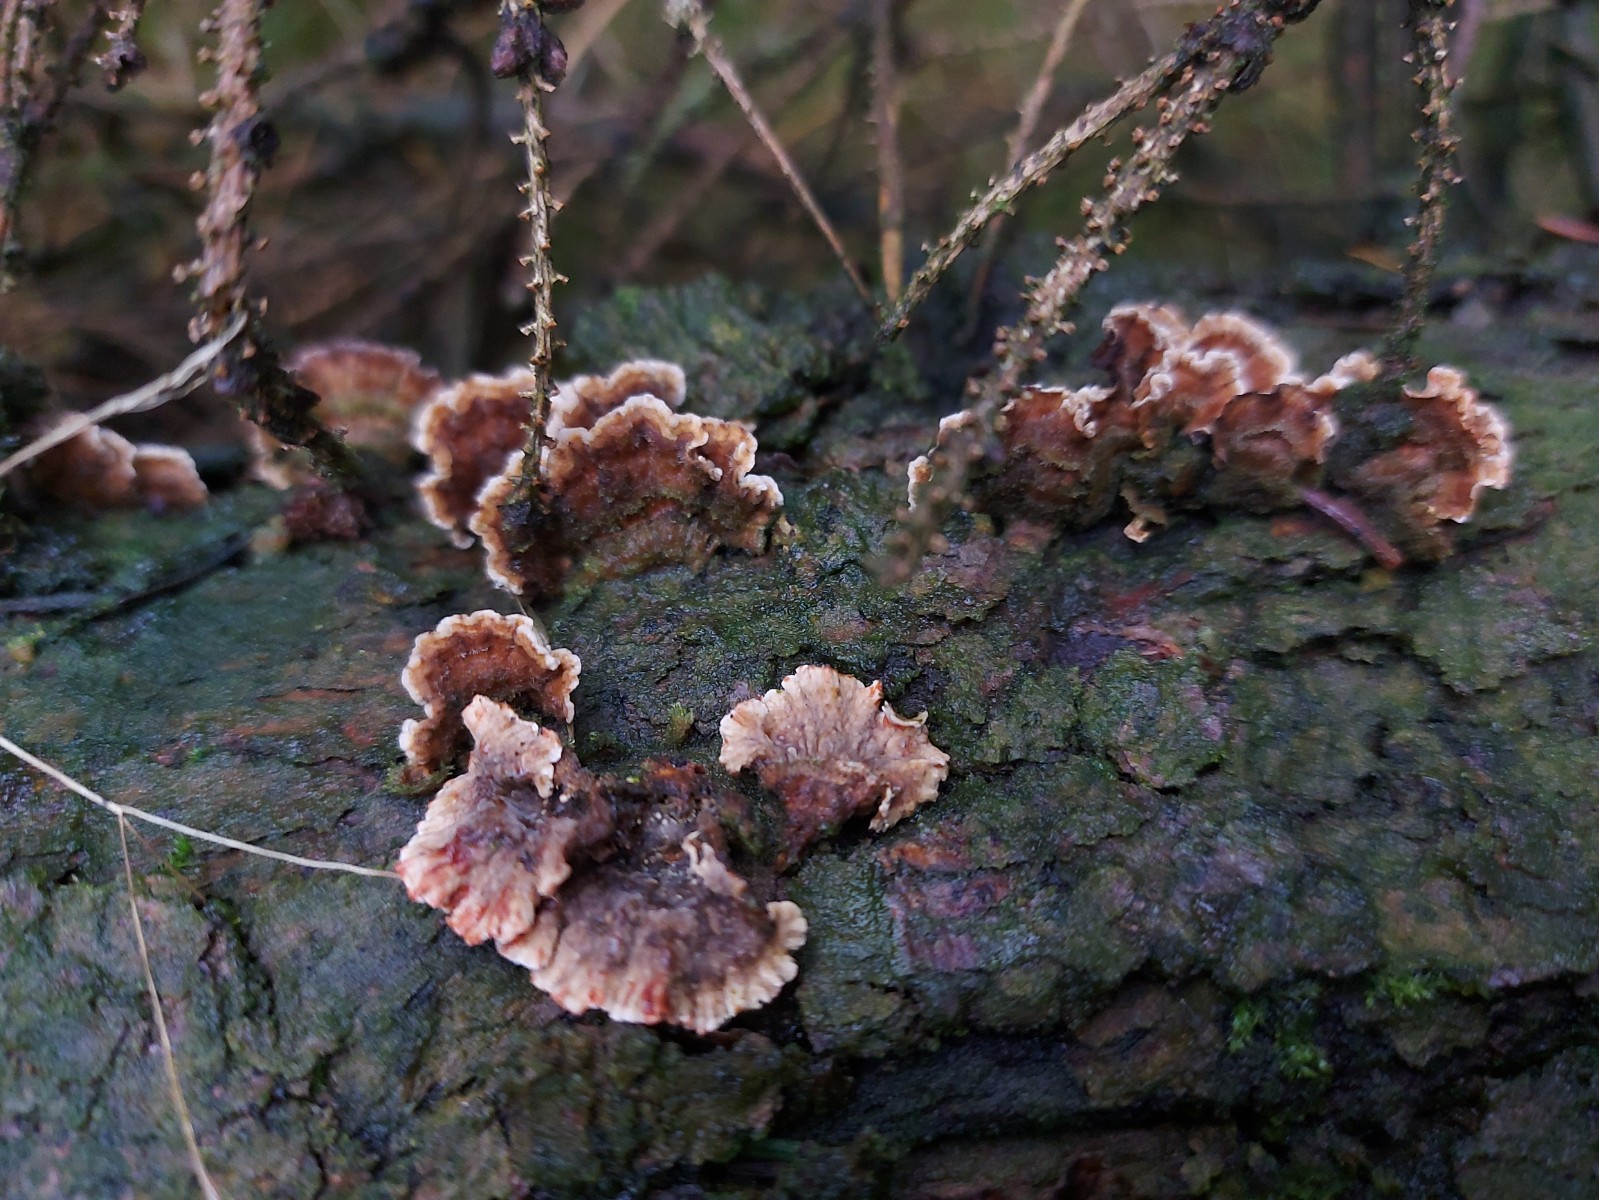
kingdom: Fungi
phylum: Basidiomycota
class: Agaricomycetes
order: Russulales
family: Stereaceae
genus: Stereum
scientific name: Stereum sanguinolentum
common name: blødende lædersvamp
